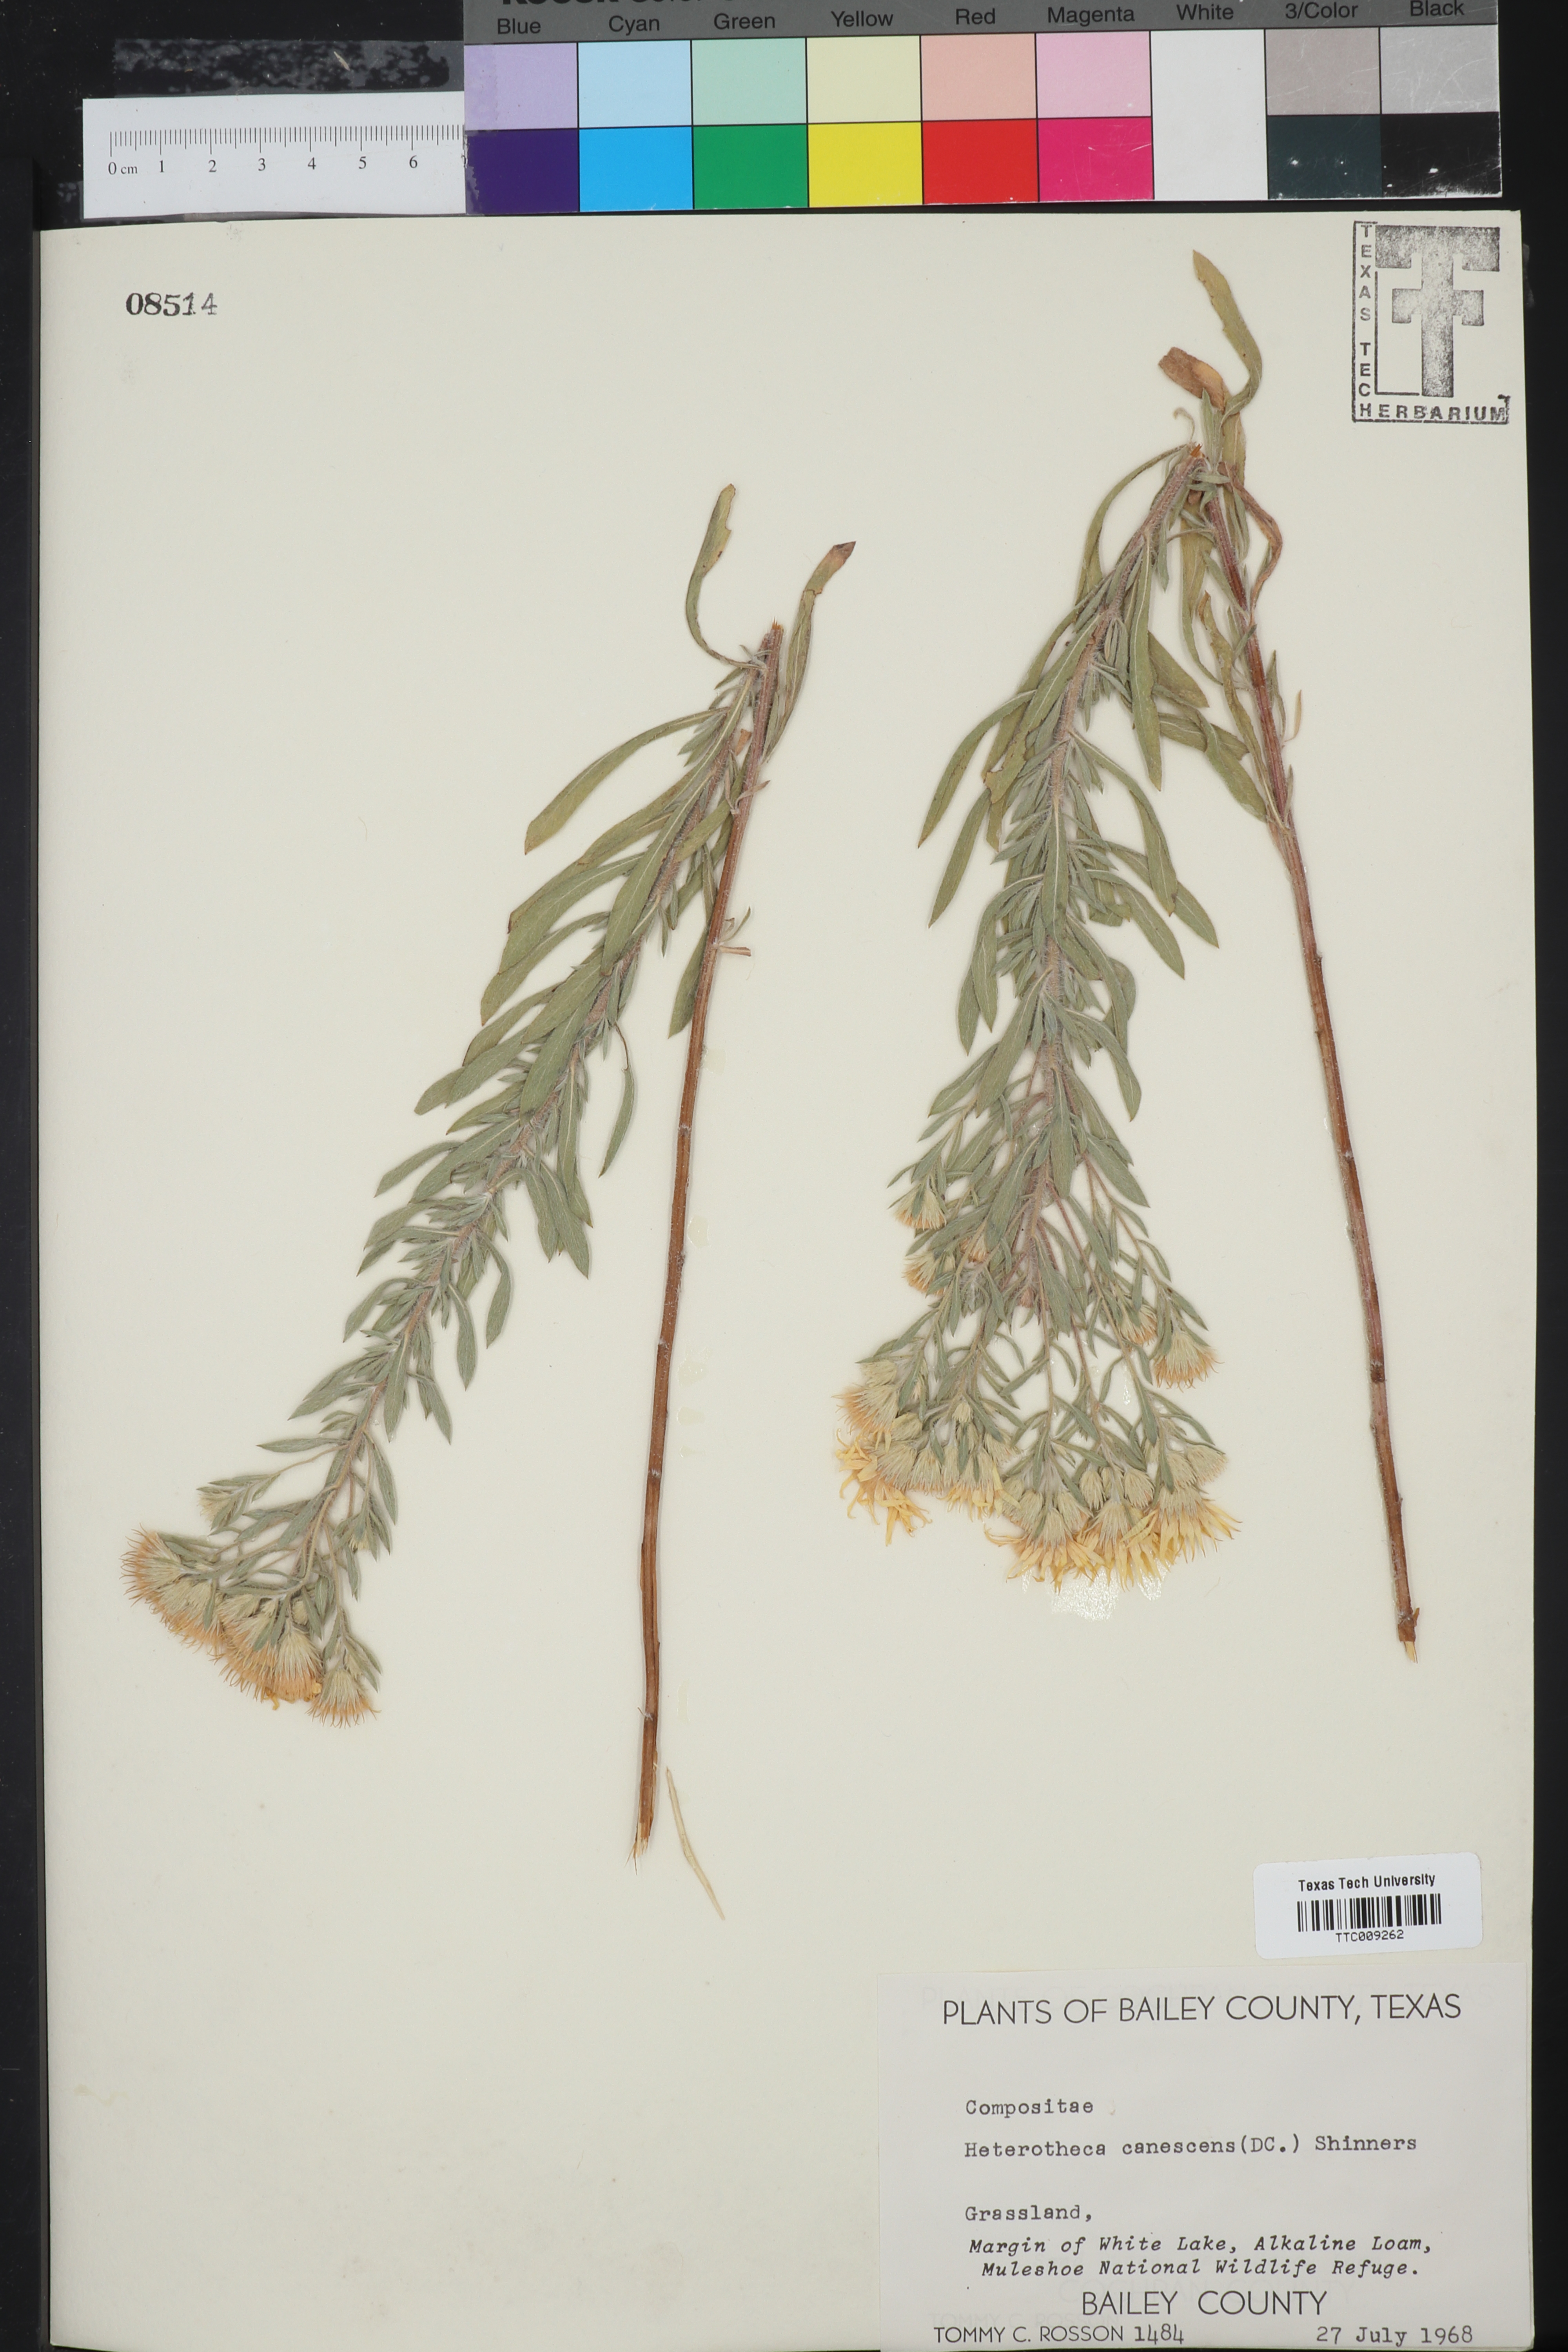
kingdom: Plantae
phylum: Tracheophyta
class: Magnoliopsida
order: Asterales
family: Asteraceae
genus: Heterotheca
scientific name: Heterotheca canescens
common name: Hoary golden-aster
